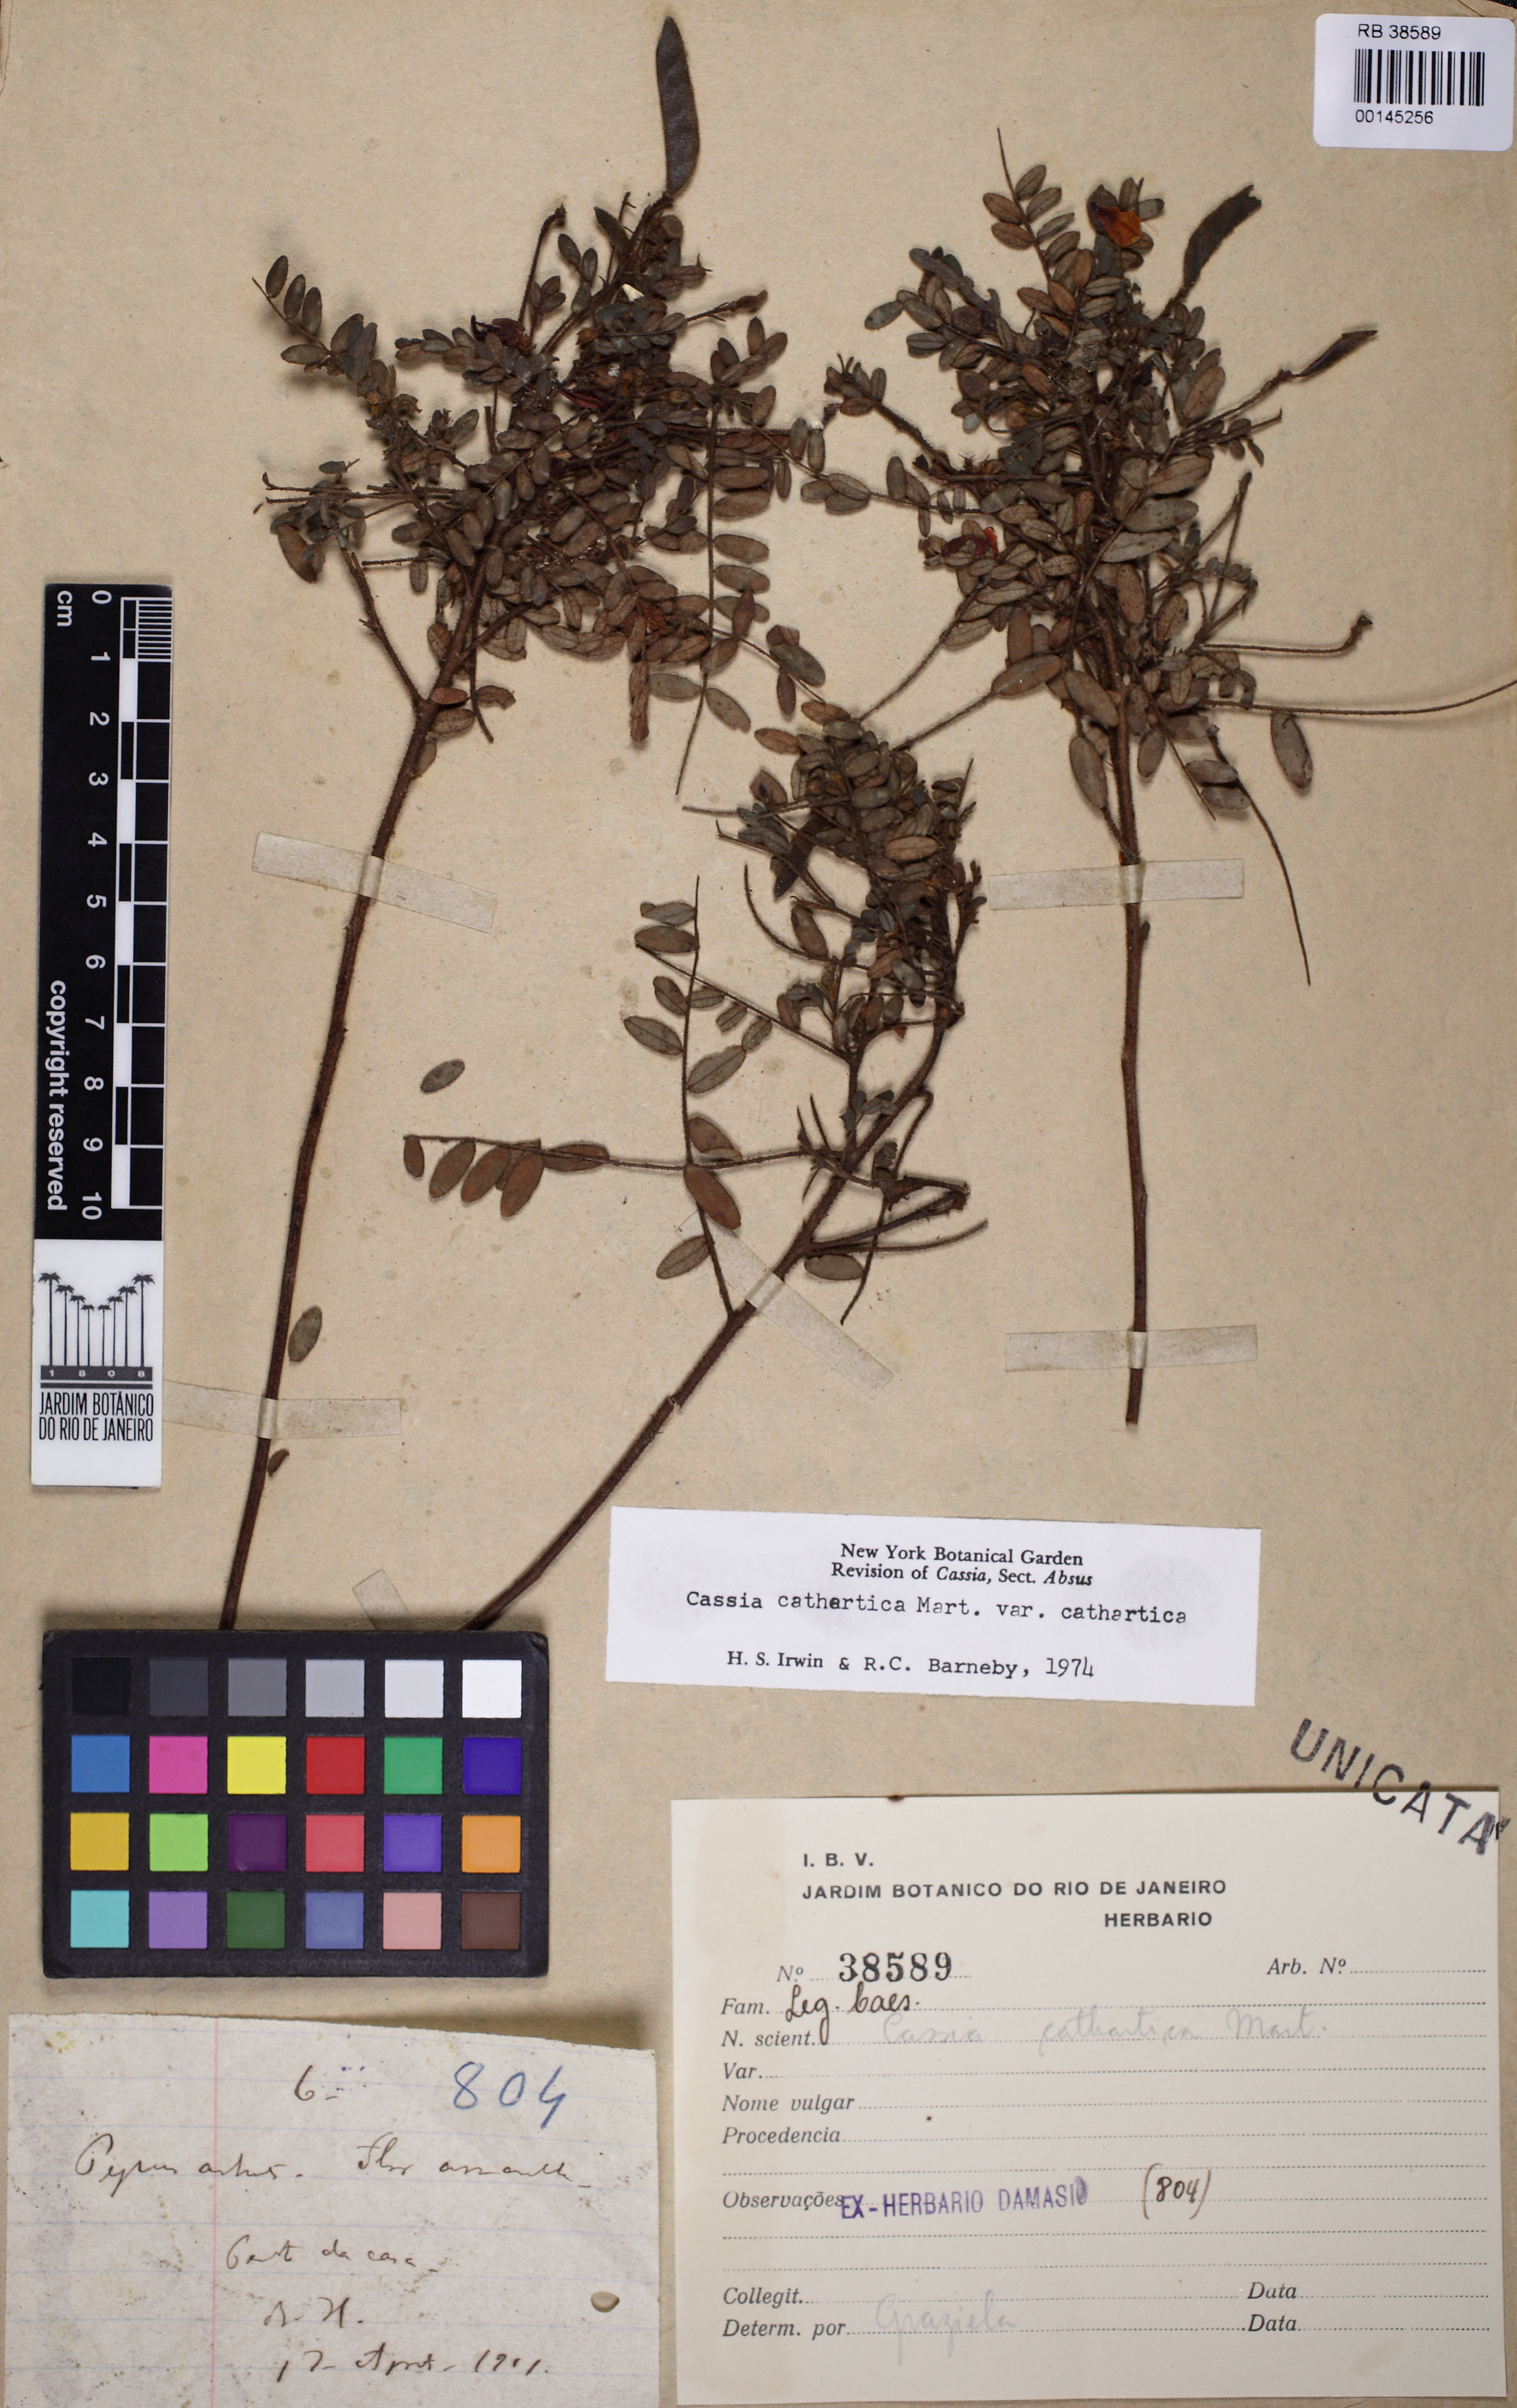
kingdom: Plantae
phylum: Tracheophyta
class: Magnoliopsida
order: Fabales
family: Fabaceae
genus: Chamaecrista
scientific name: Chamaecrista cathartica
